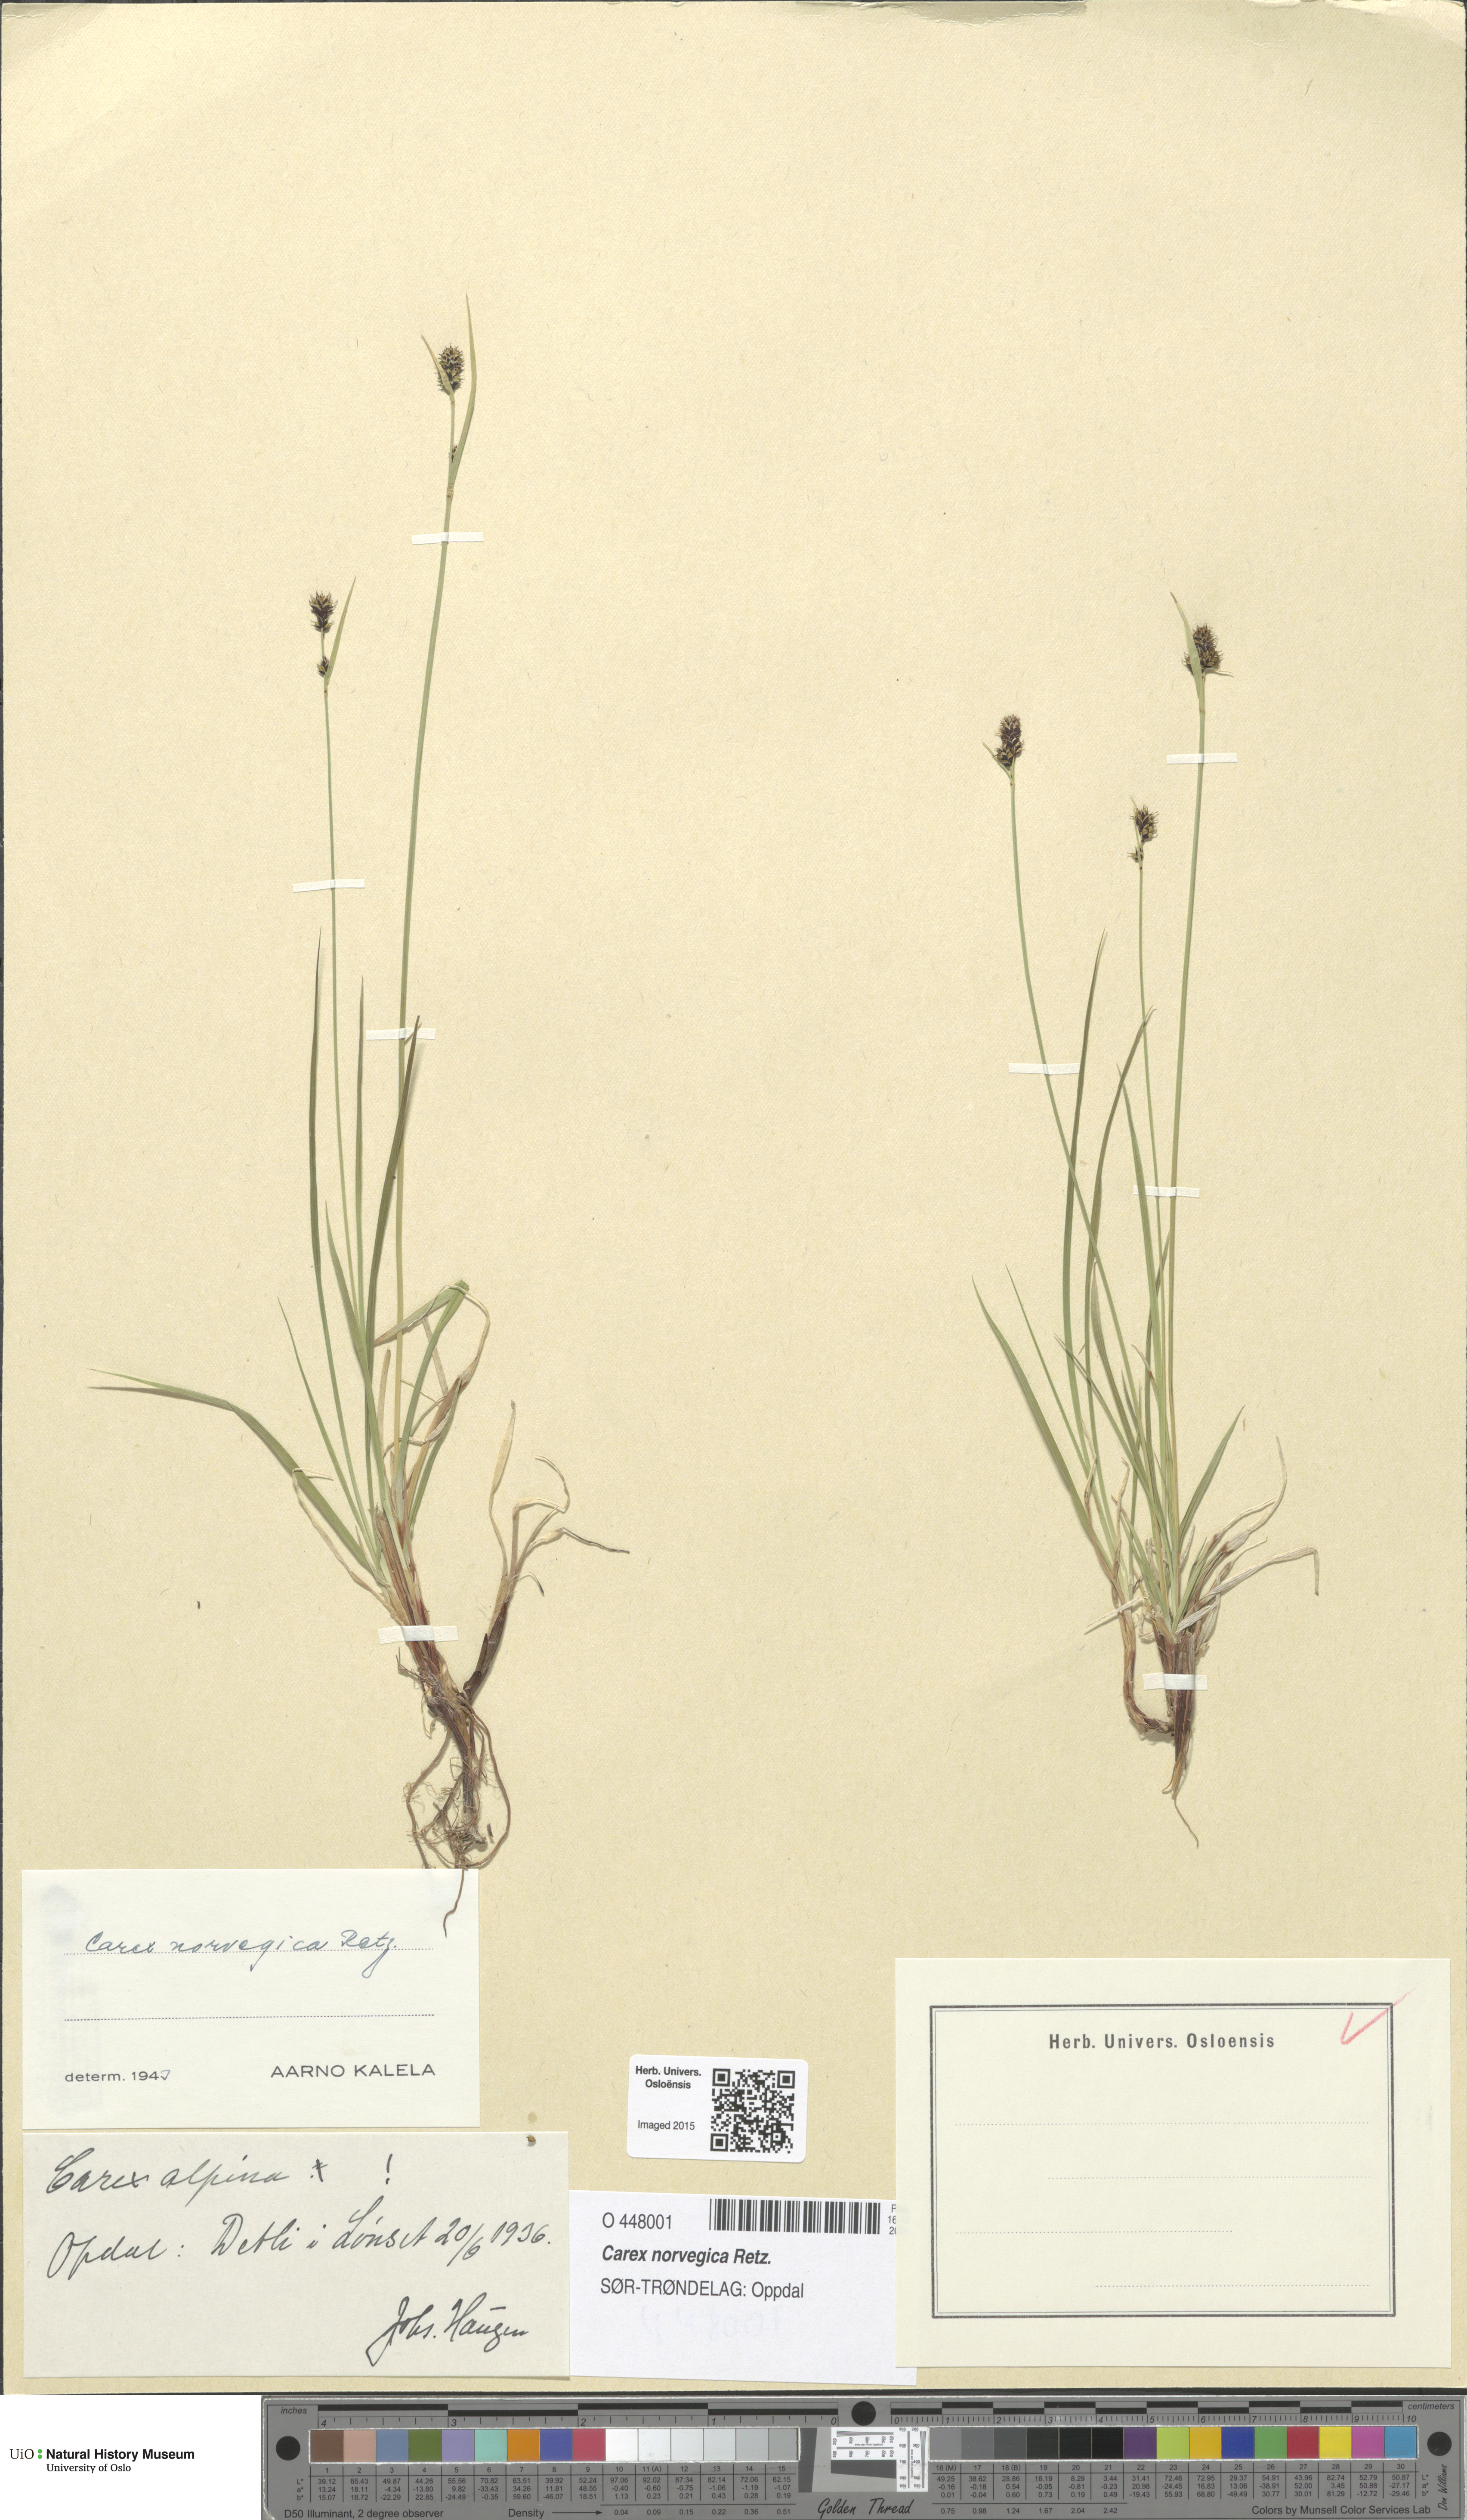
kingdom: Plantae
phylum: Tracheophyta
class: Liliopsida
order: Poales
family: Cyperaceae
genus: Carex
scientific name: Carex norvegica
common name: Close-headed alpine-sedge
